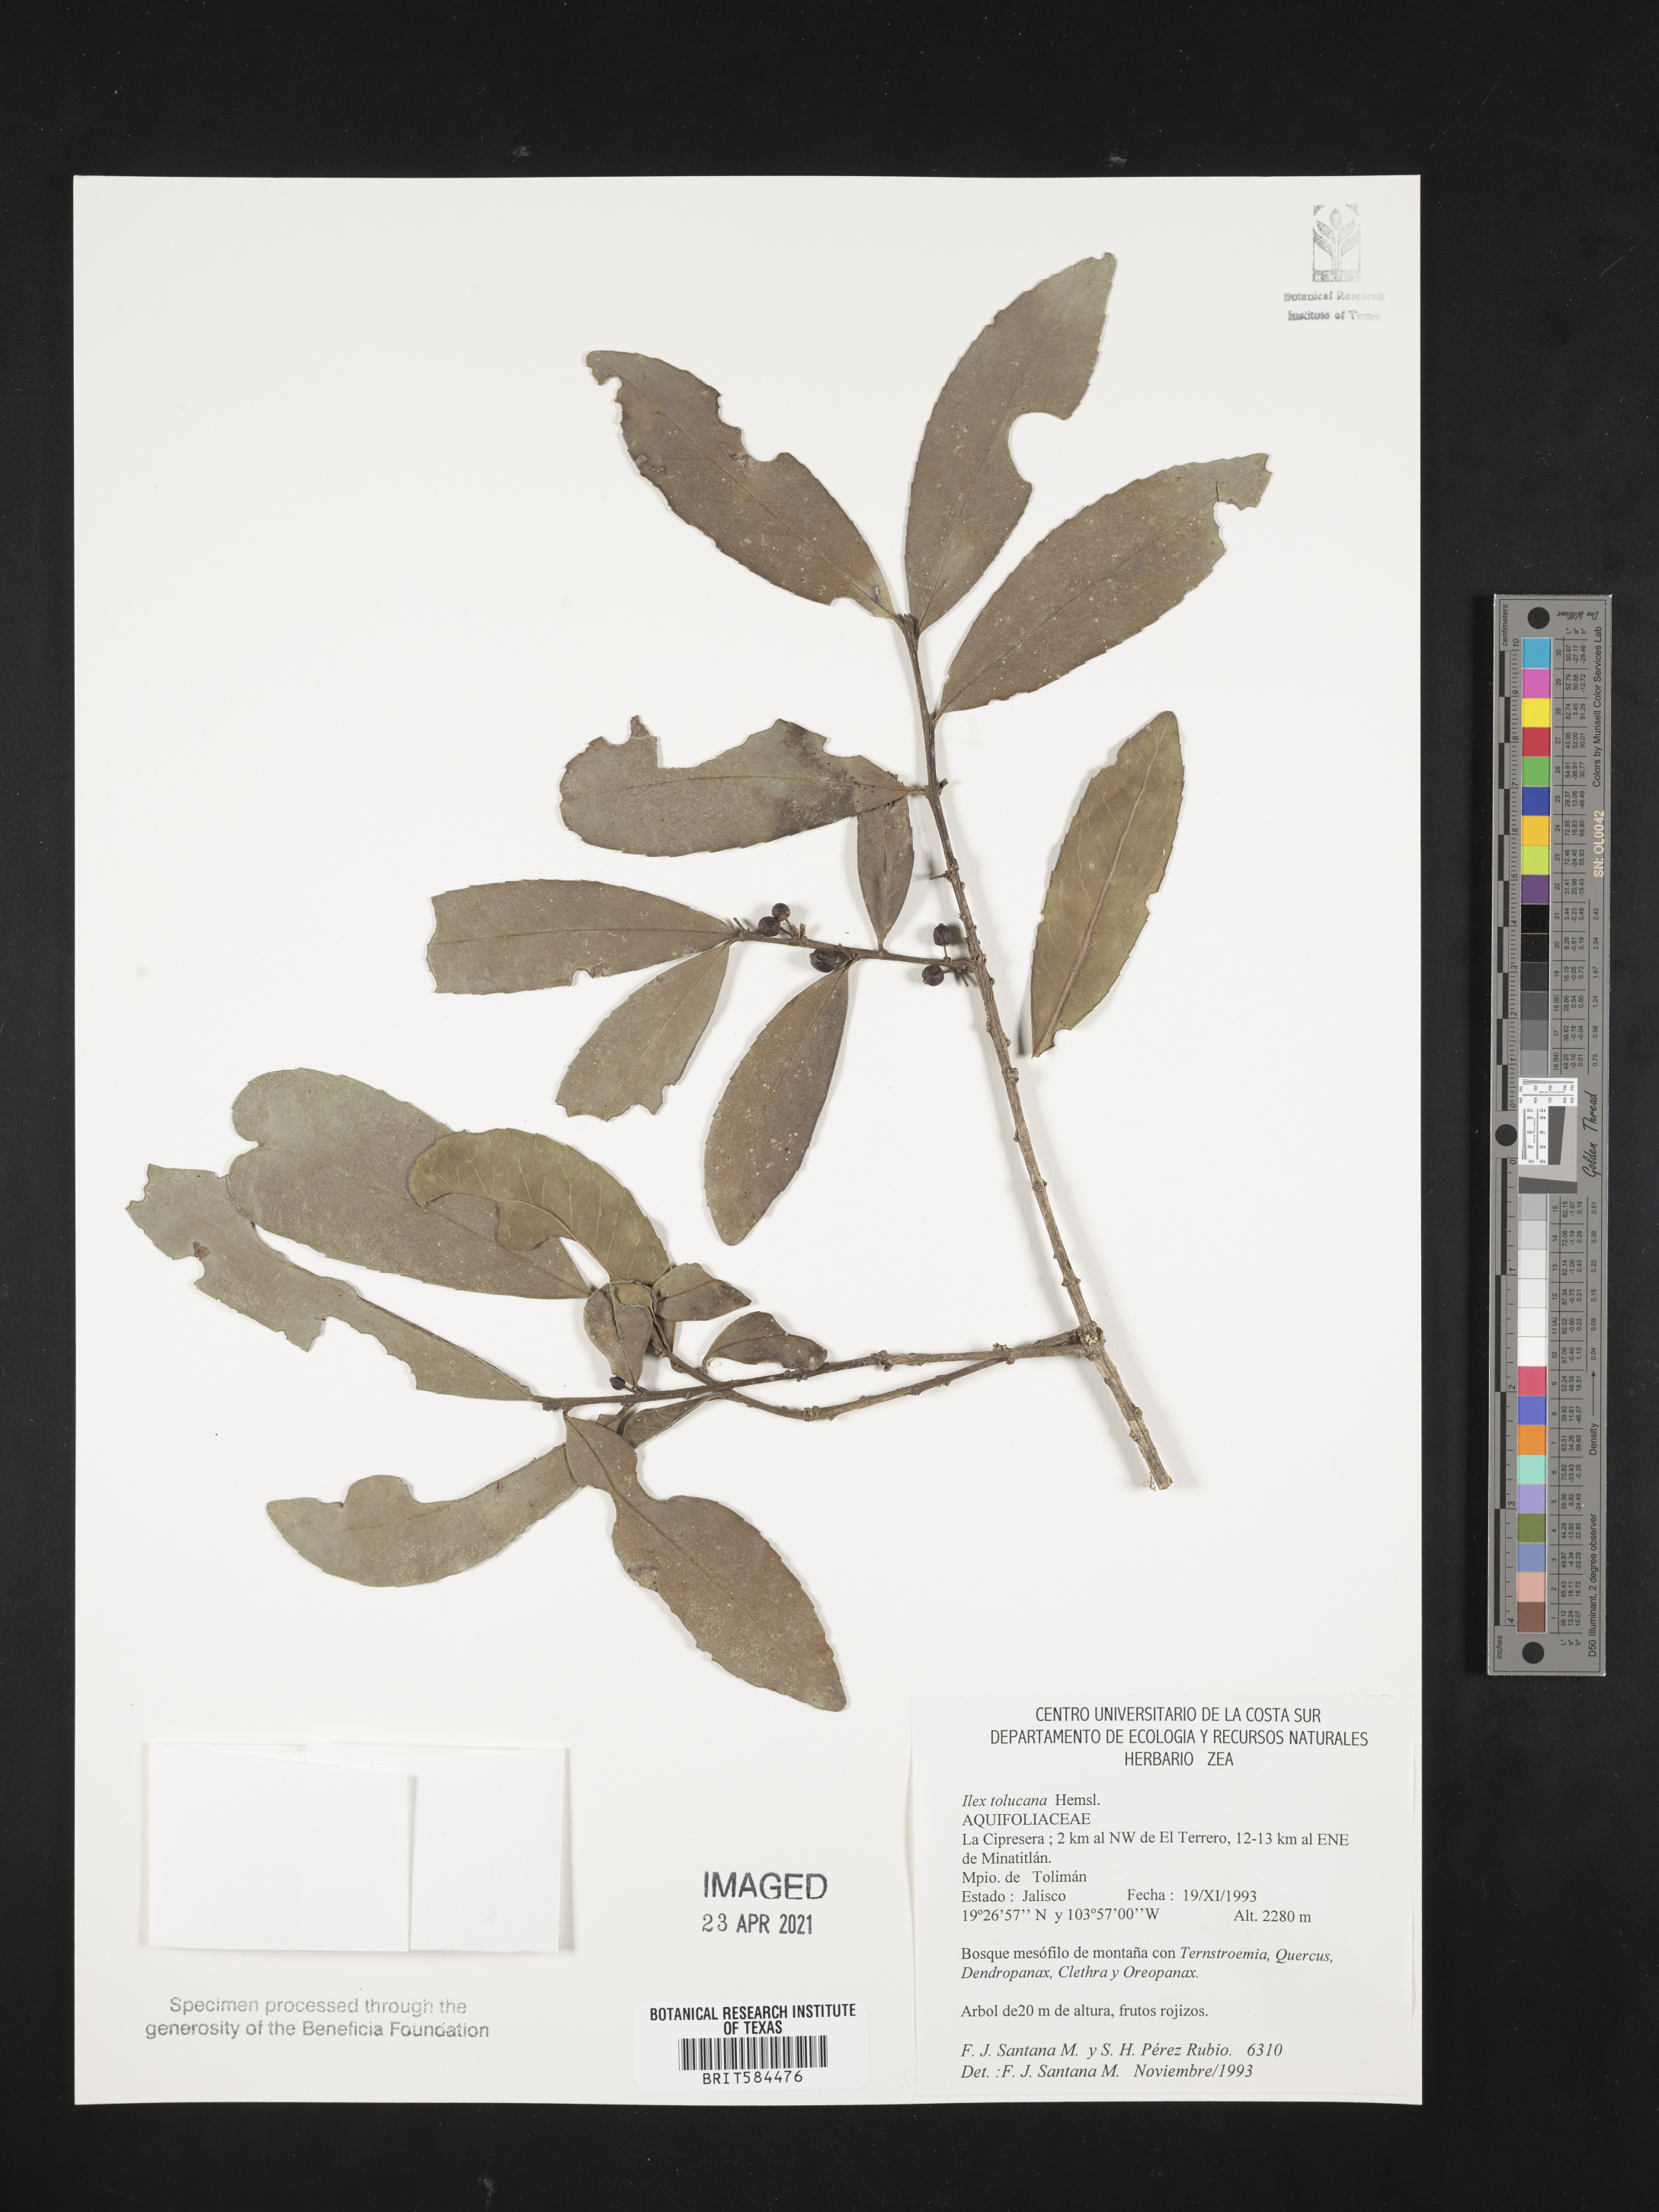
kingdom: Plantae
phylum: Tracheophyta
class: Magnoliopsida
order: Aquifoliales
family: Aquifoliaceae
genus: Ilex
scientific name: Ilex discolor
